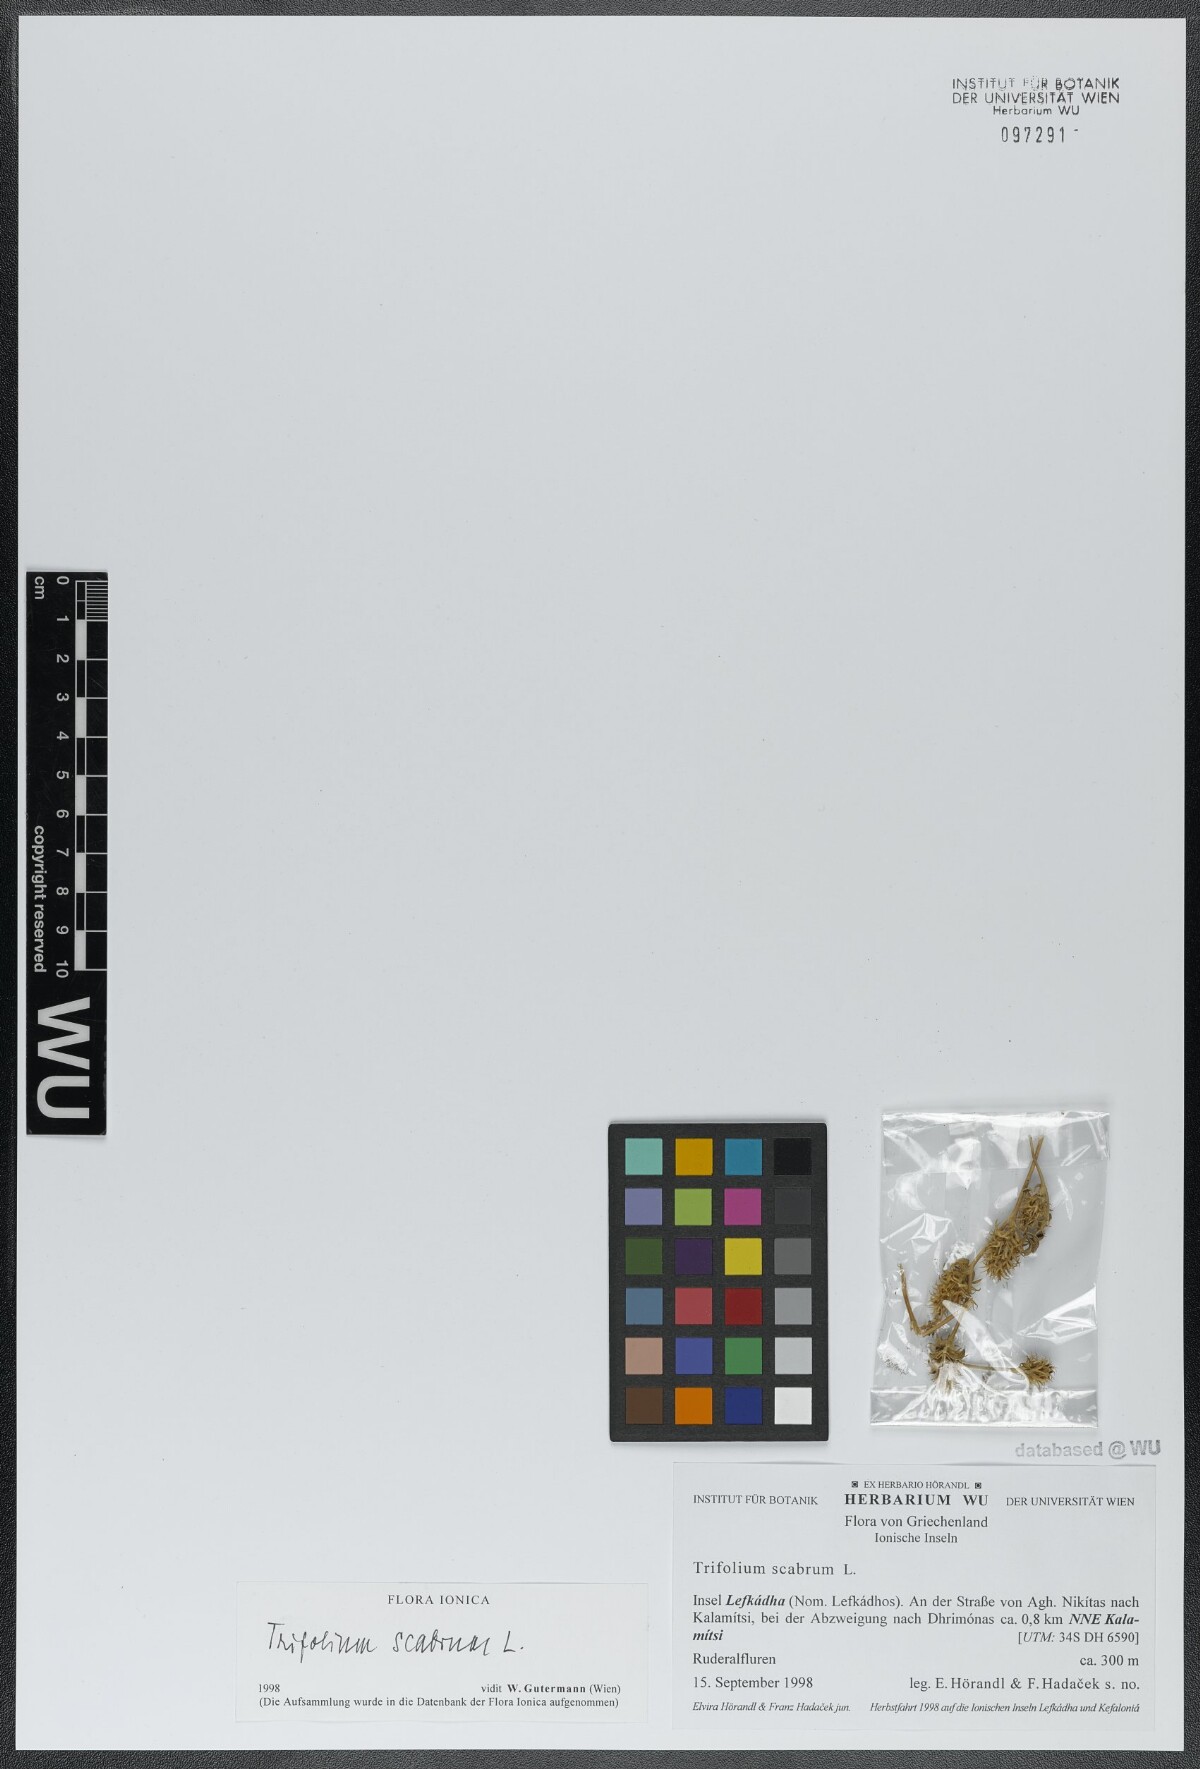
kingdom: Plantae
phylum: Tracheophyta
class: Magnoliopsida
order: Fabales
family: Fabaceae
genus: Trifolium
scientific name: Trifolium scabrum
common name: Rough clover
